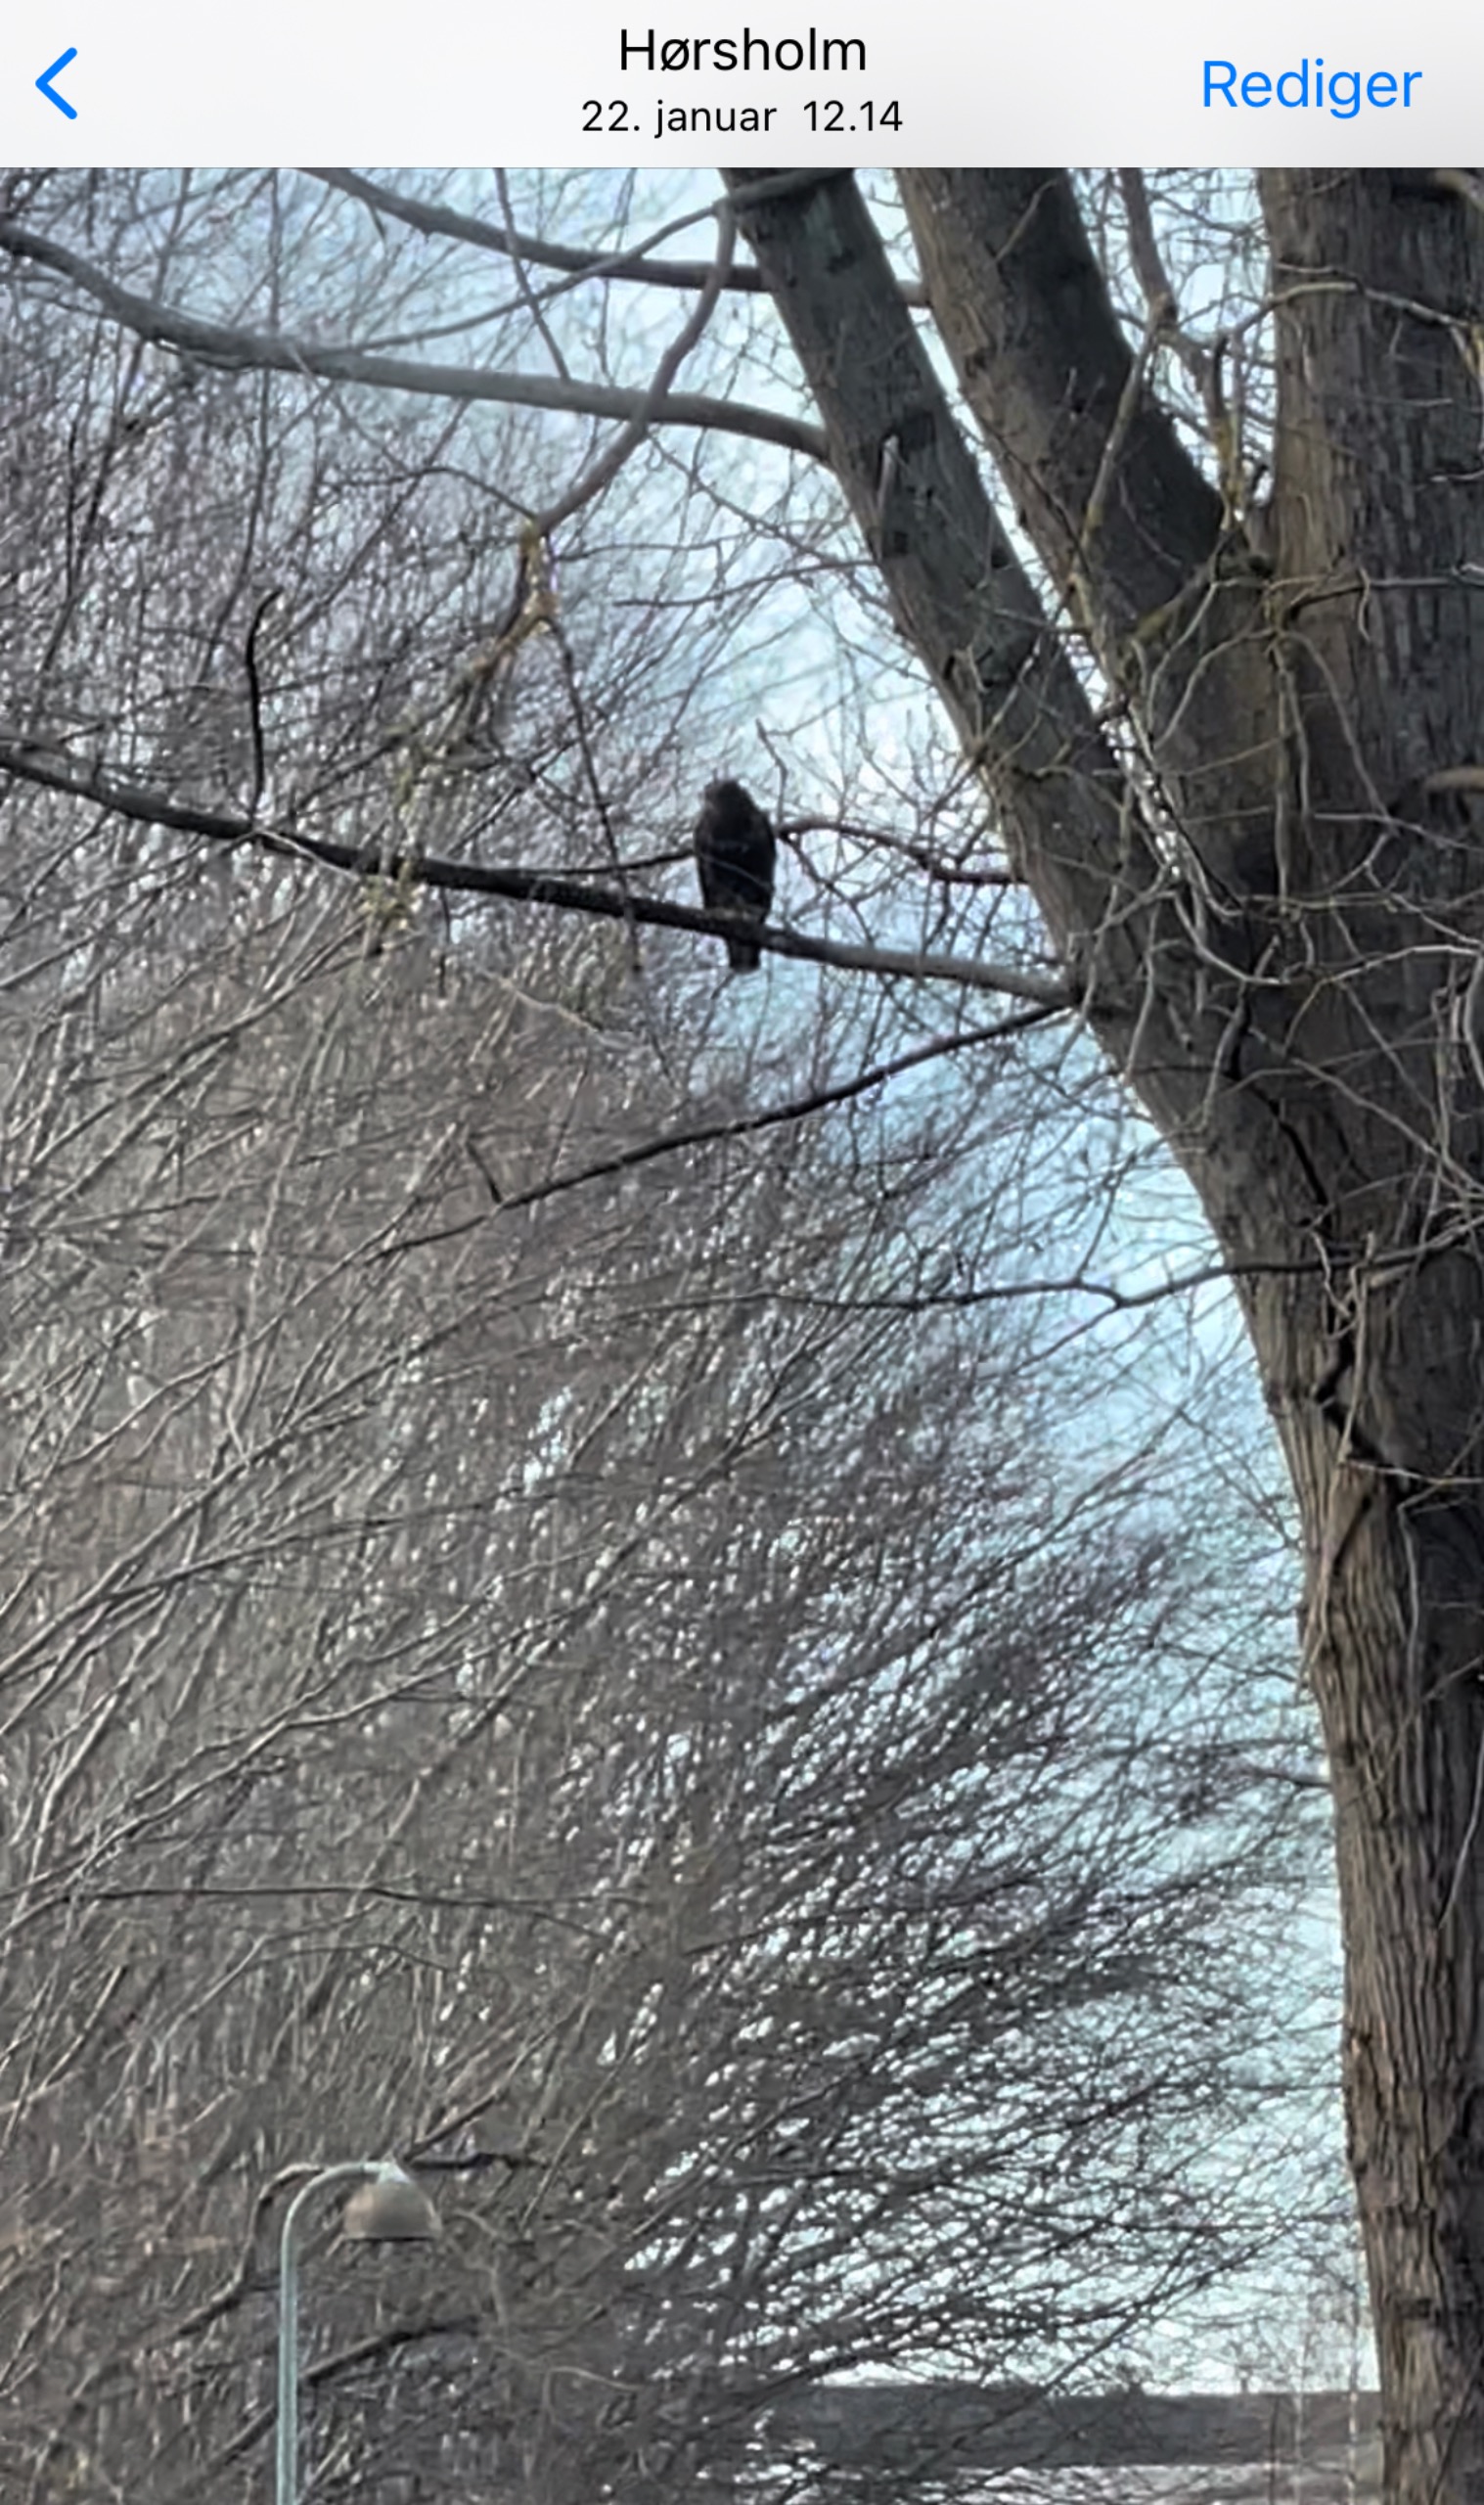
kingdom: Animalia
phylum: Chordata
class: Aves
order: Accipitriformes
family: Accipitridae
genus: Buteo
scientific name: Buteo buteo
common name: Musvåge
